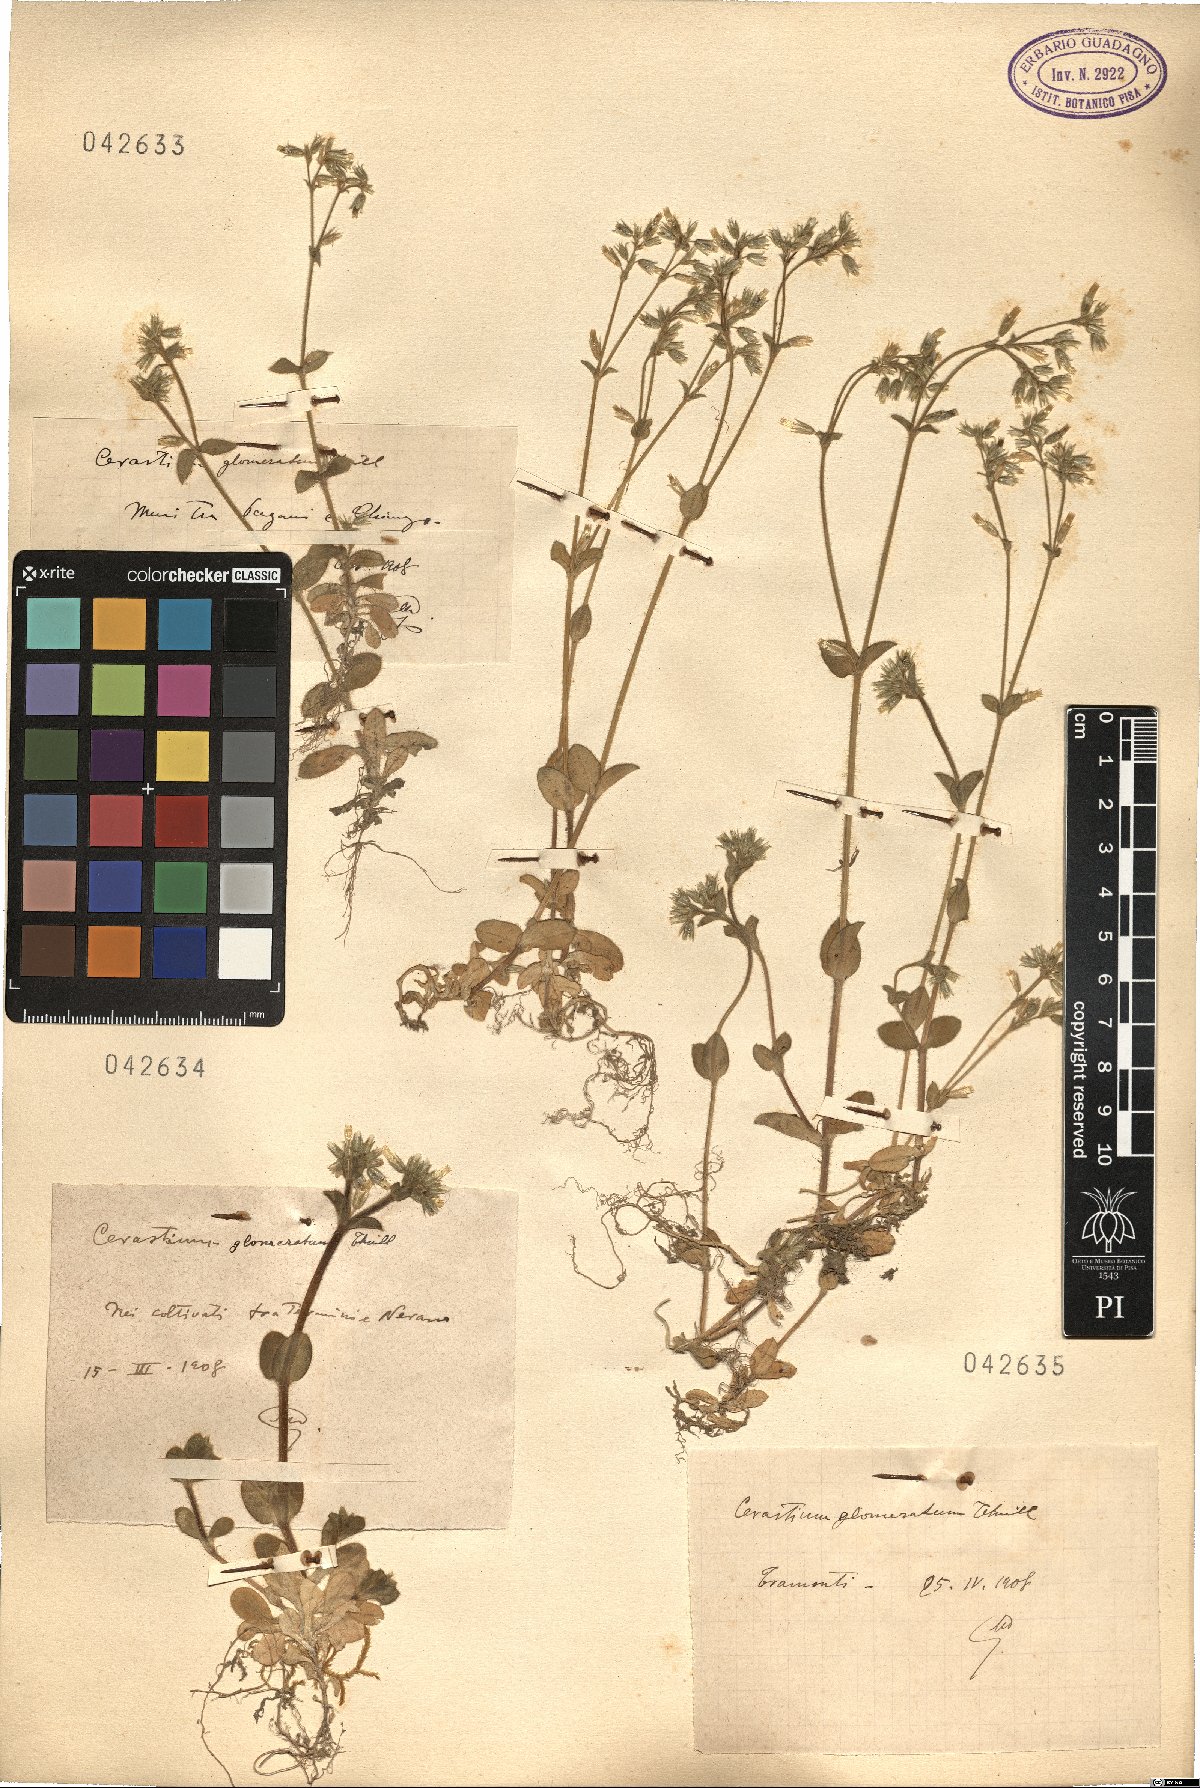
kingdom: Plantae
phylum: Tracheophyta
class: Magnoliopsida
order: Caryophyllales
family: Caryophyllaceae
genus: Cerastium
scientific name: Cerastium glomeratum
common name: Sticky chickweed
